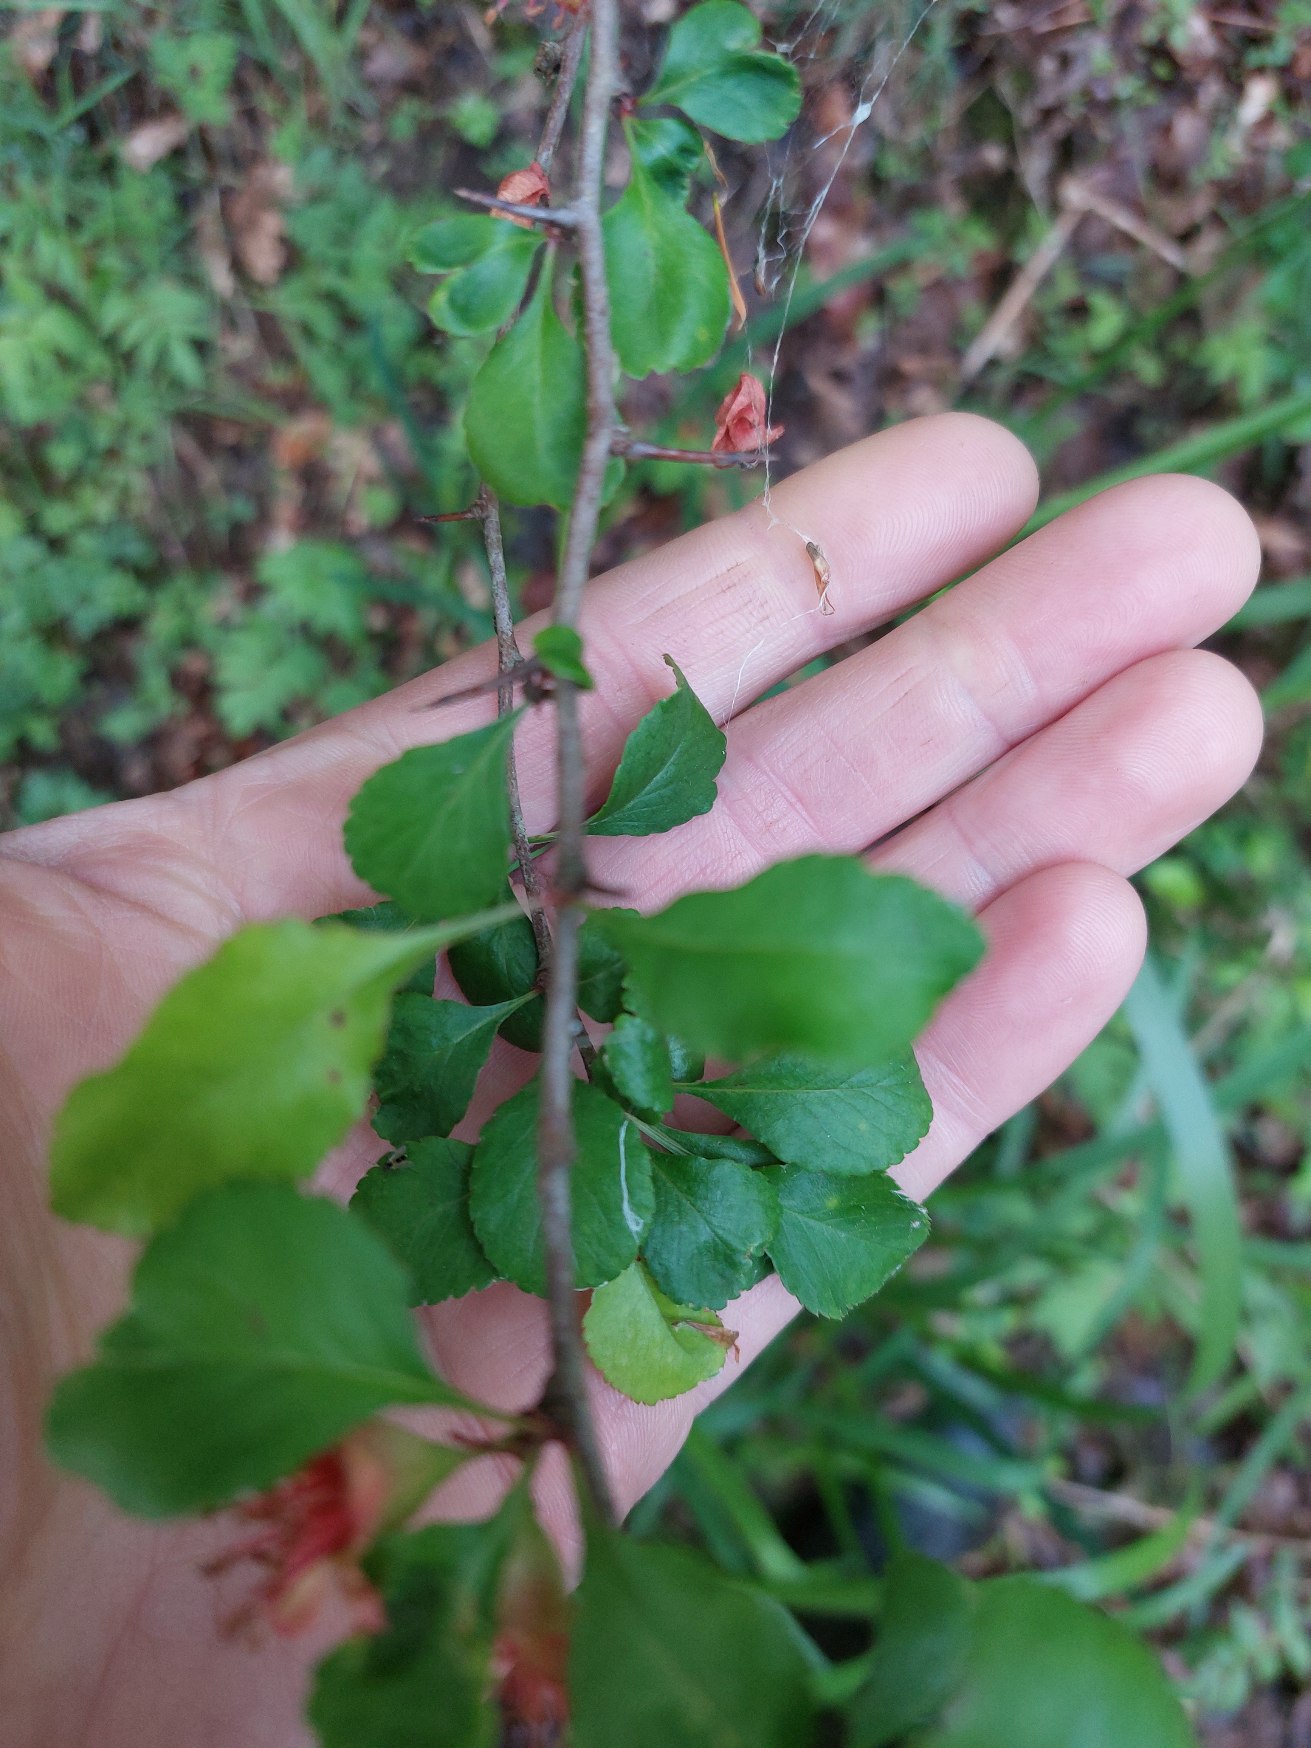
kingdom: Plantae
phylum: Tracheophyta
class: Magnoliopsida
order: Rosales
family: Rosaceae
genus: Chaenomeles
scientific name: Chaenomeles japonica
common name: Lille japankvæde
